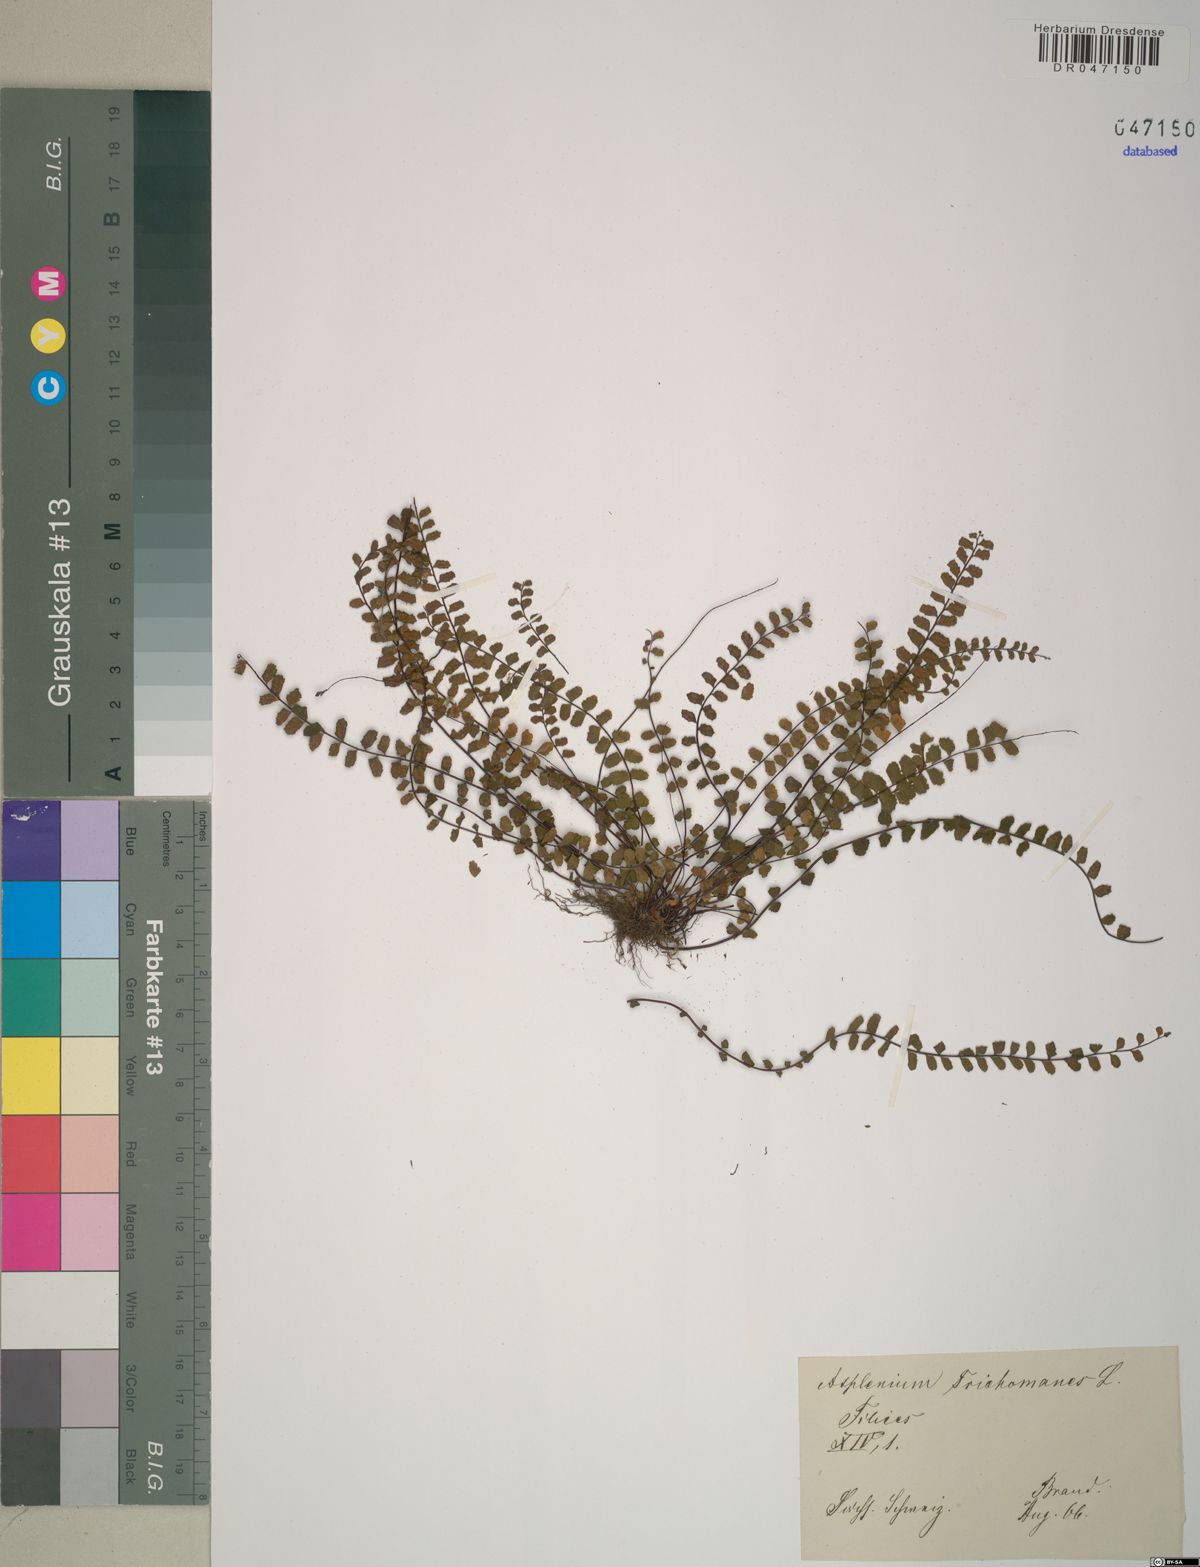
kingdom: Plantae
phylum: Tracheophyta
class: Polypodiopsida
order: Polypodiales
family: Aspleniaceae
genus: Asplenium
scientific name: Asplenium trichomanes
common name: Maidenhair spleenwort
